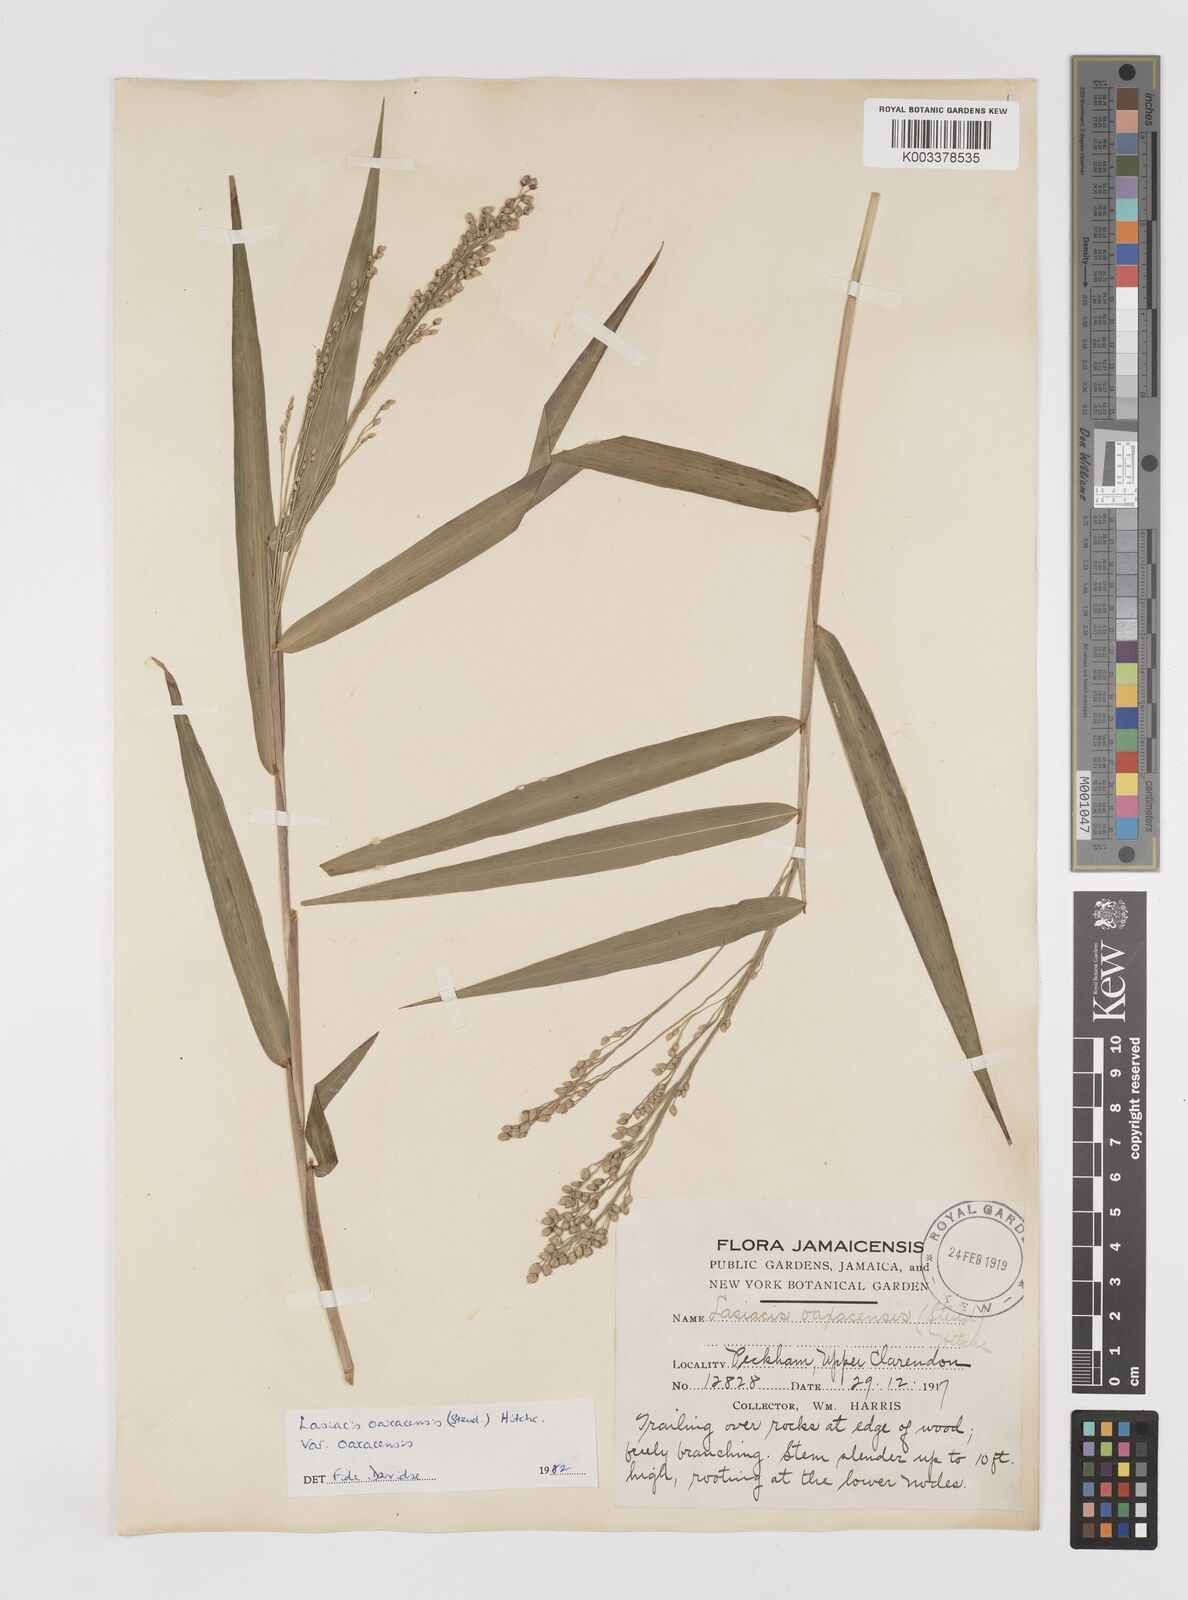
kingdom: Plantae
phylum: Tracheophyta
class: Liliopsida
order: Poales
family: Poaceae
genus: Lasiacis
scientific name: Lasiacis oaxacensis
